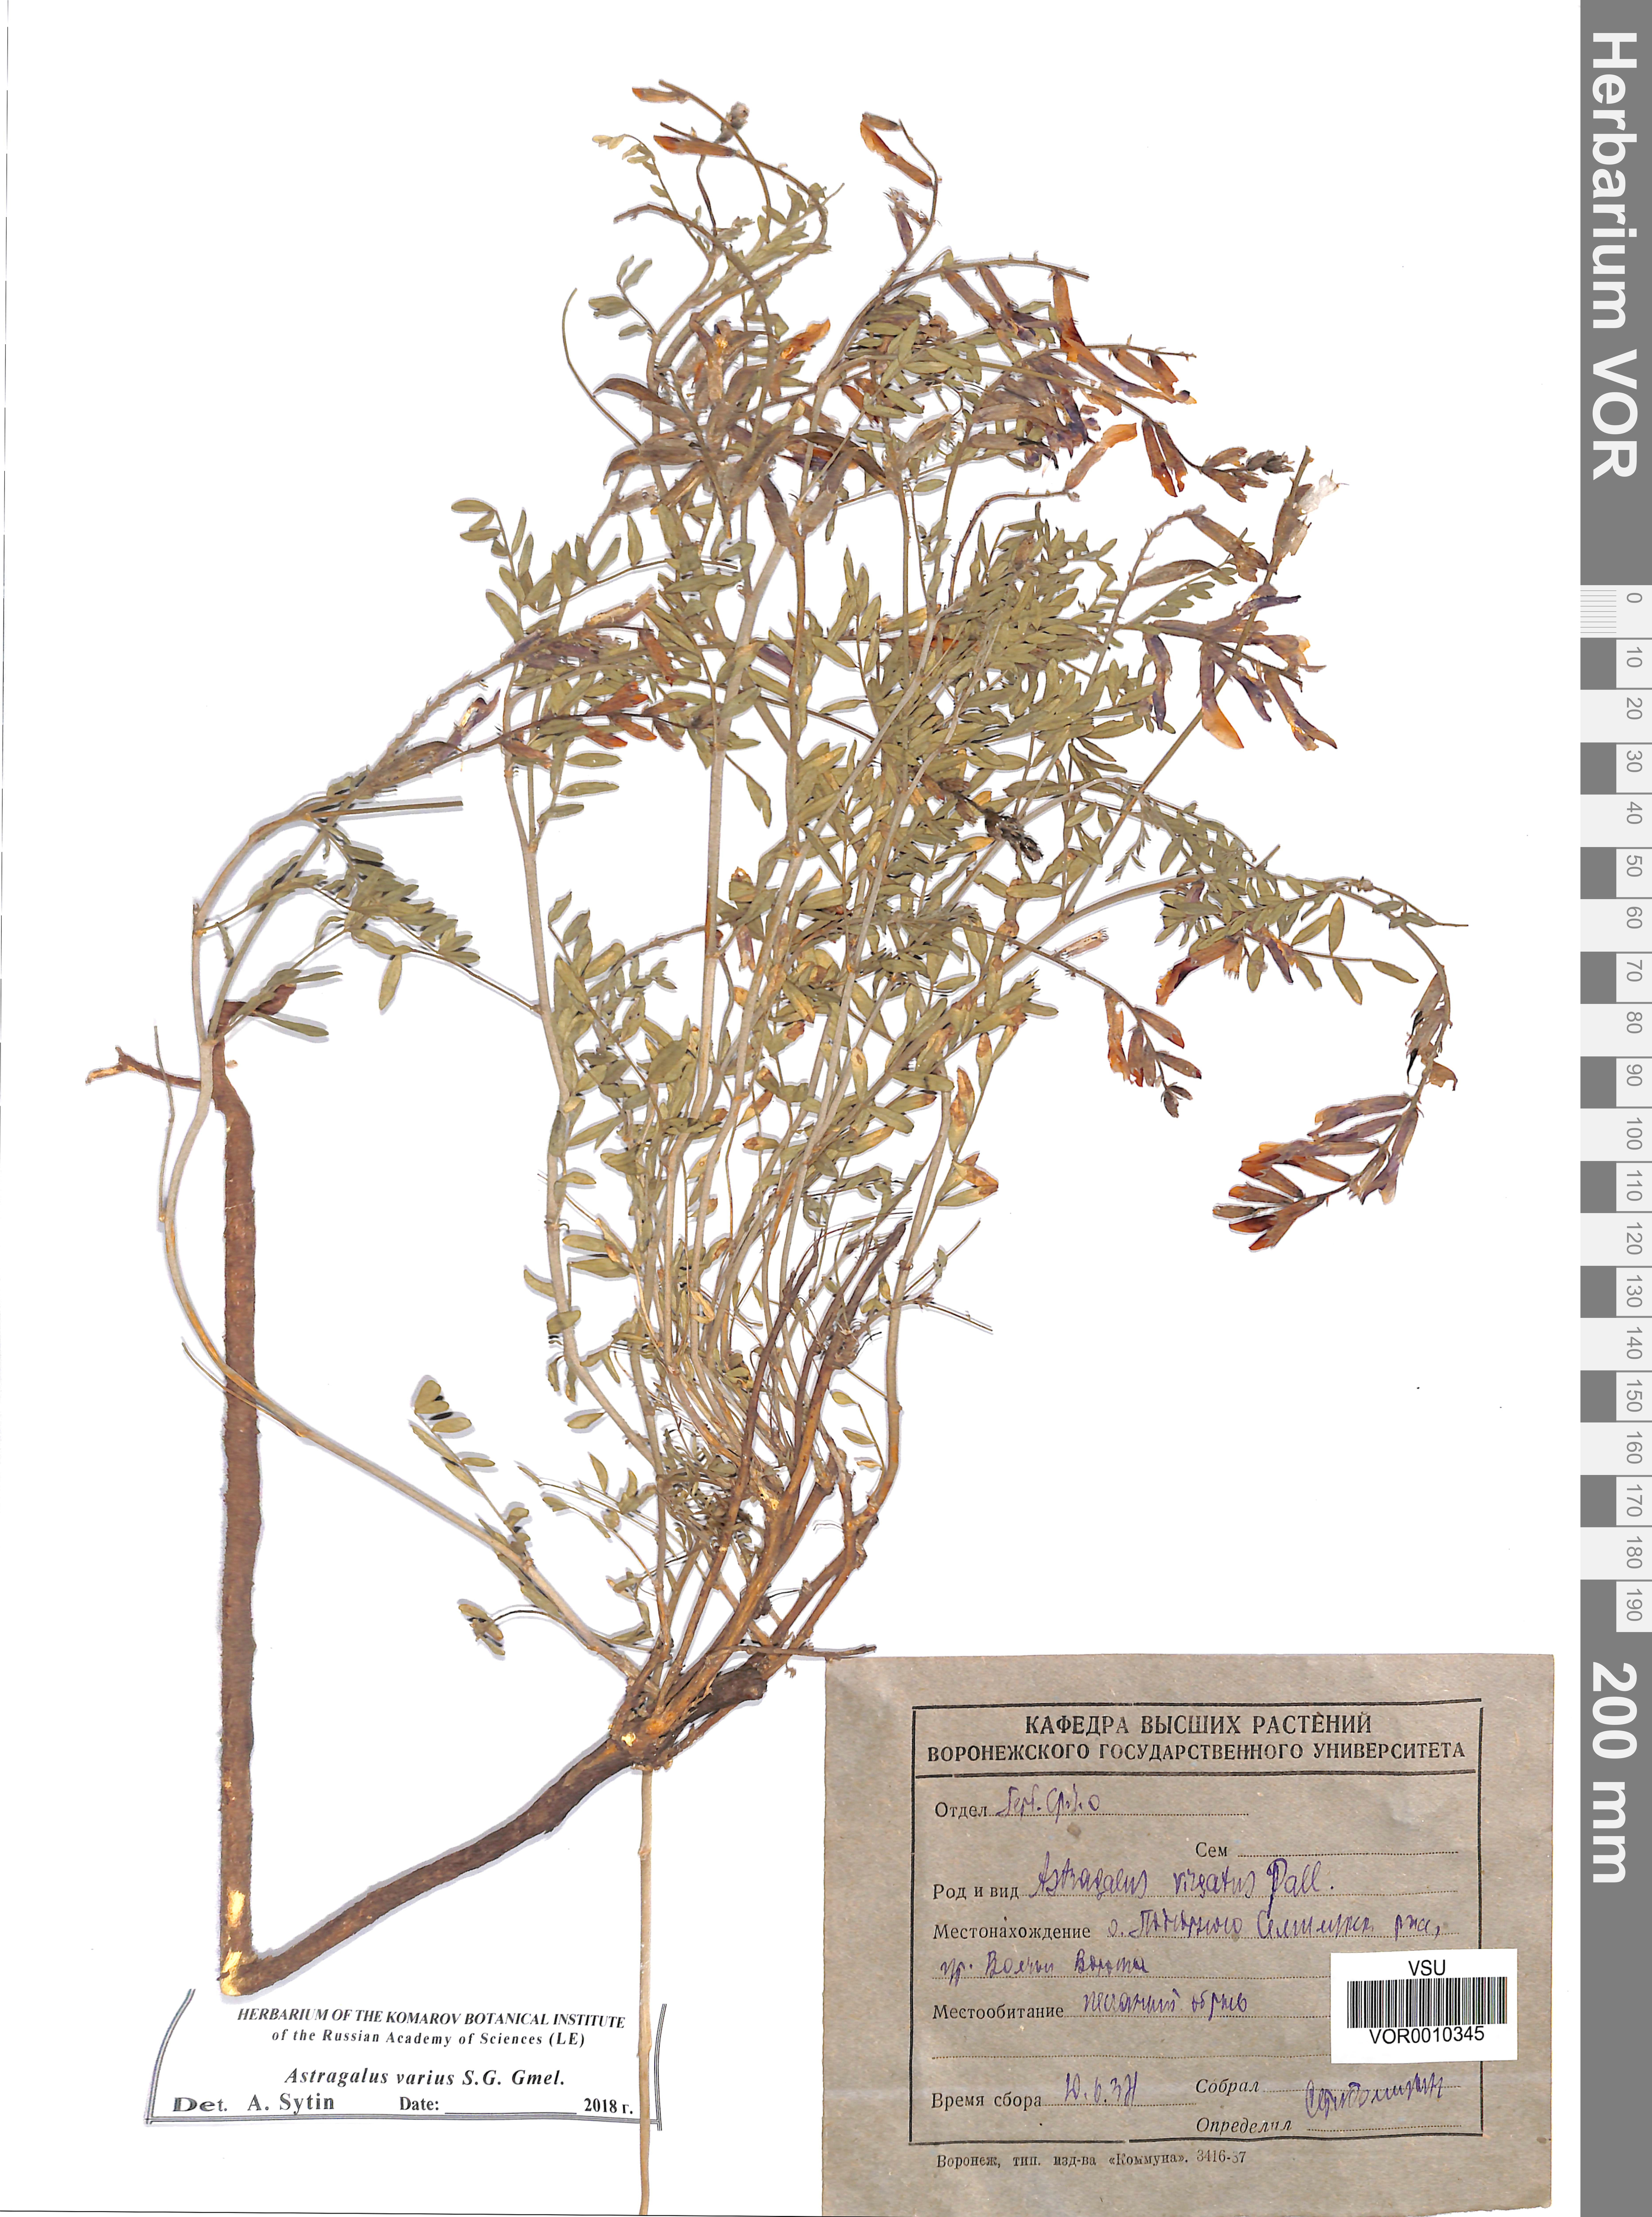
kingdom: Plantae
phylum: Tracheophyta
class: Magnoliopsida
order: Fabales
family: Fabaceae
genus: Astragalus
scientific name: Astragalus varius
